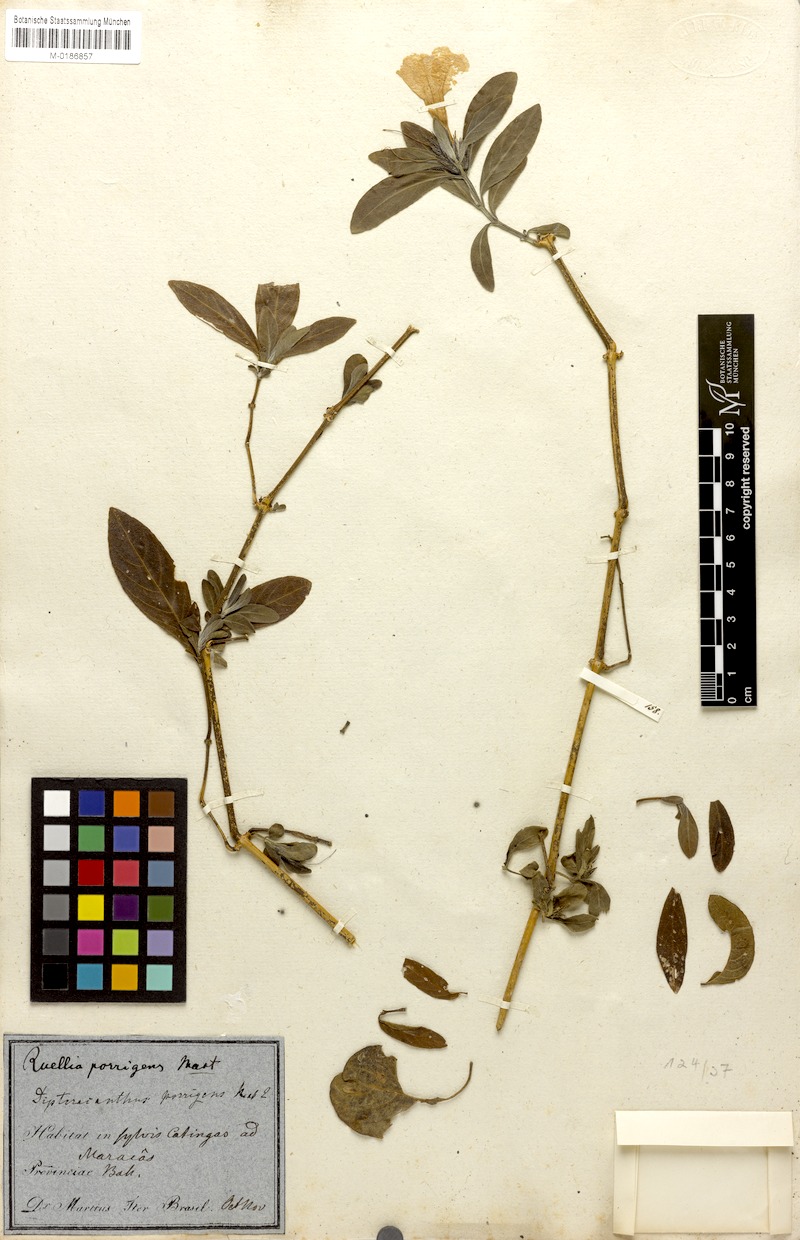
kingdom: Plantae
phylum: Tracheophyta
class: Magnoliopsida
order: Lamiales
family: Acanthaceae
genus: Ruellia
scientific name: Ruellia geminiflora
